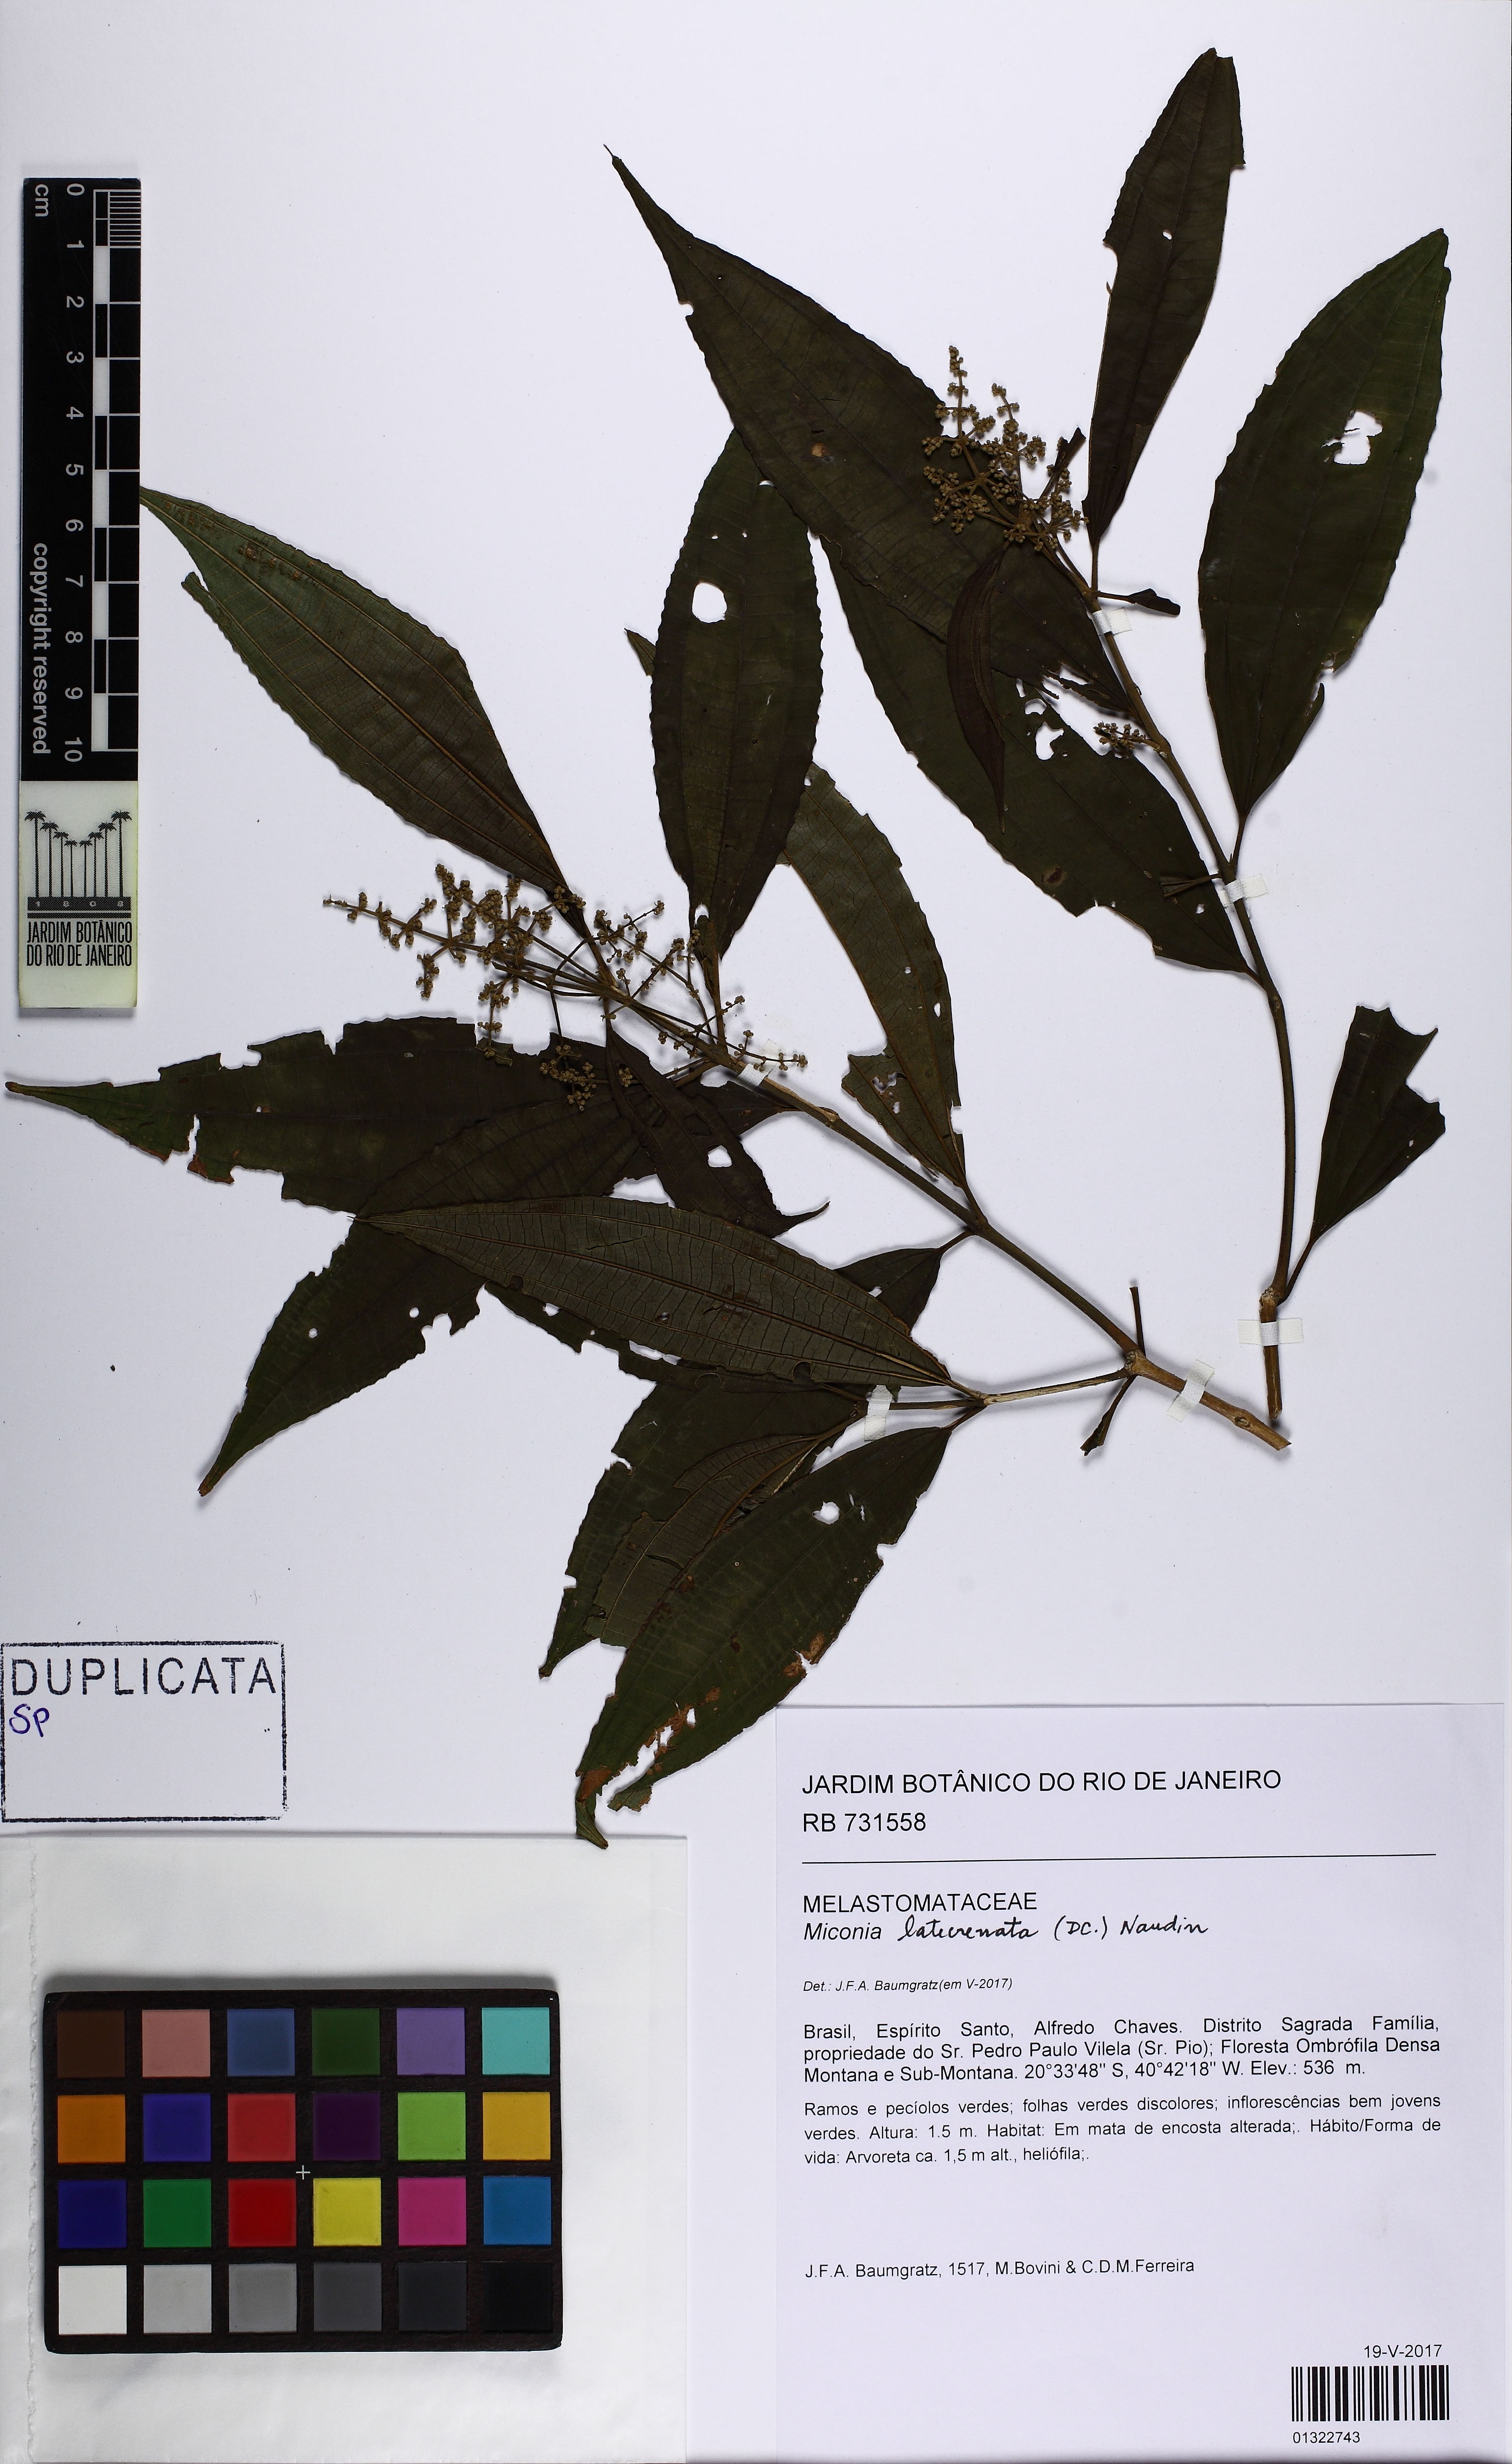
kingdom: Plantae
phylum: Tracheophyta
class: Magnoliopsida
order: Myrtales
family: Melastomataceae
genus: Miconia
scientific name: Miconia latecrenata
